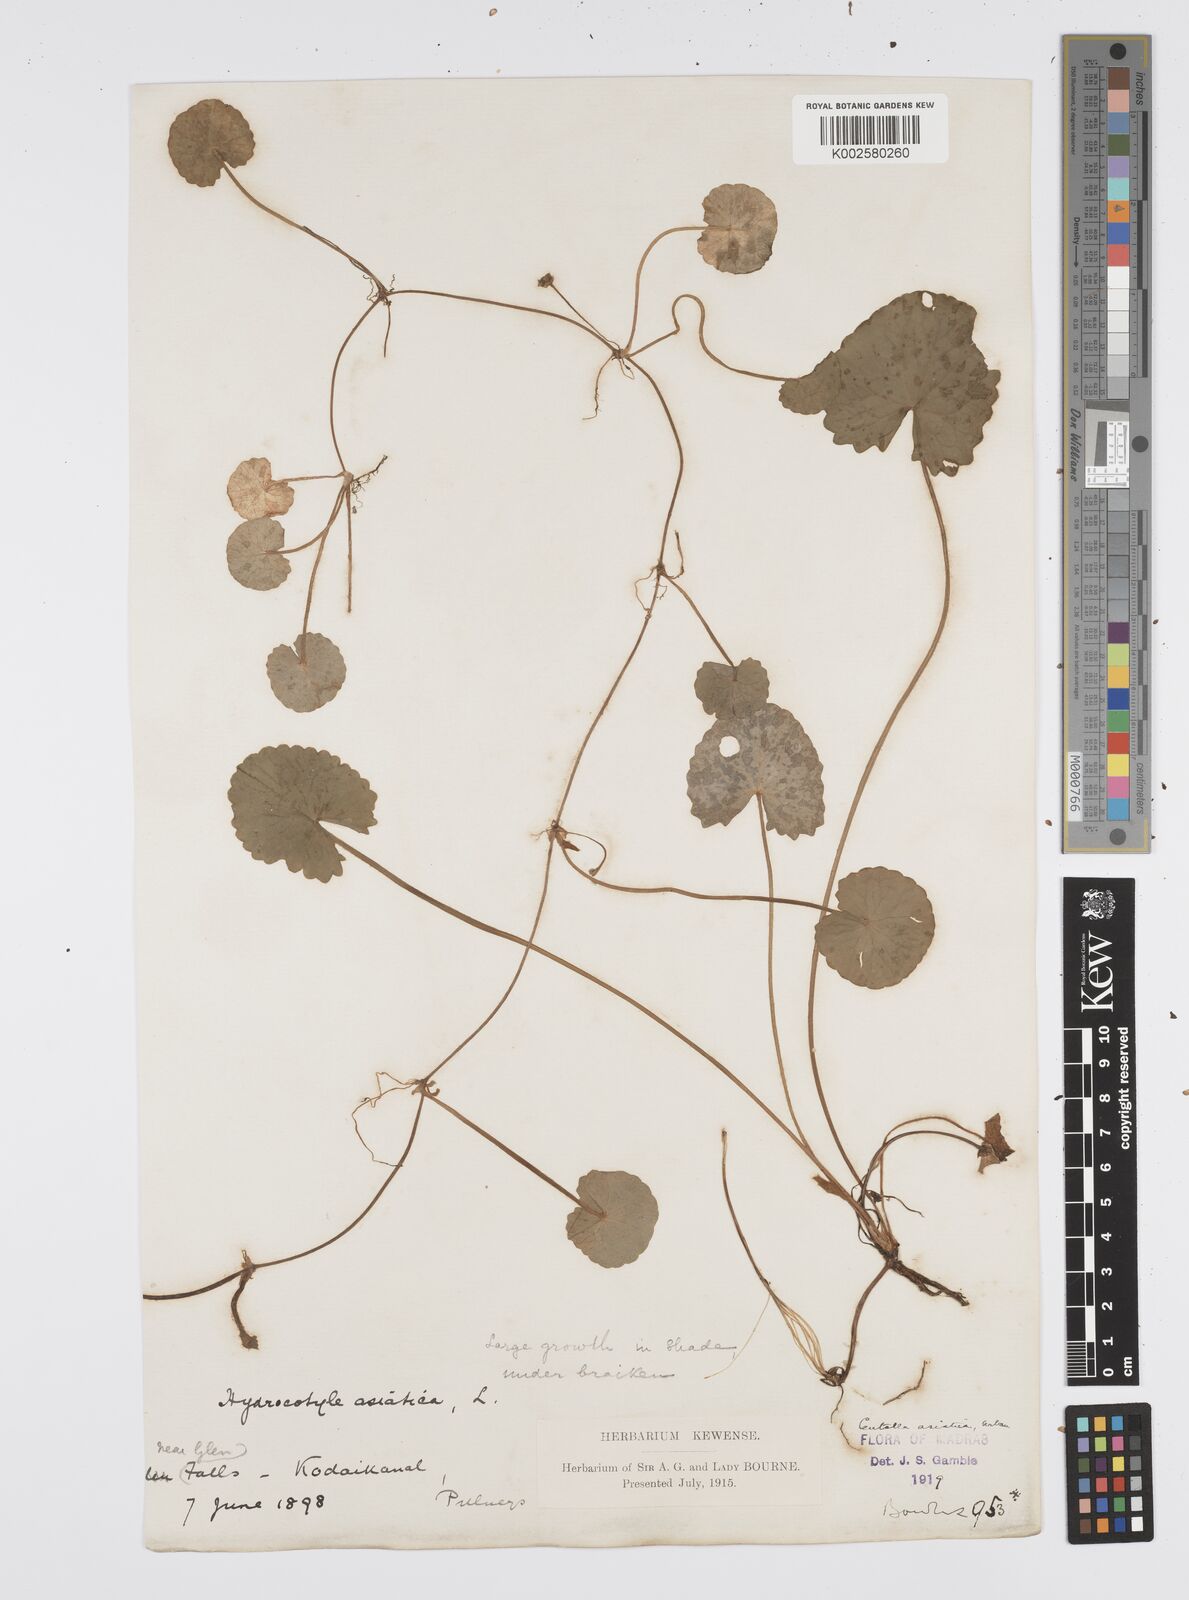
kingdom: Plantae
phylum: Tracheophyta
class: Magnoliopsida
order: Apiales
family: Apiaceae
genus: Centella
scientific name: Centella asiatica
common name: Spadeleaf
